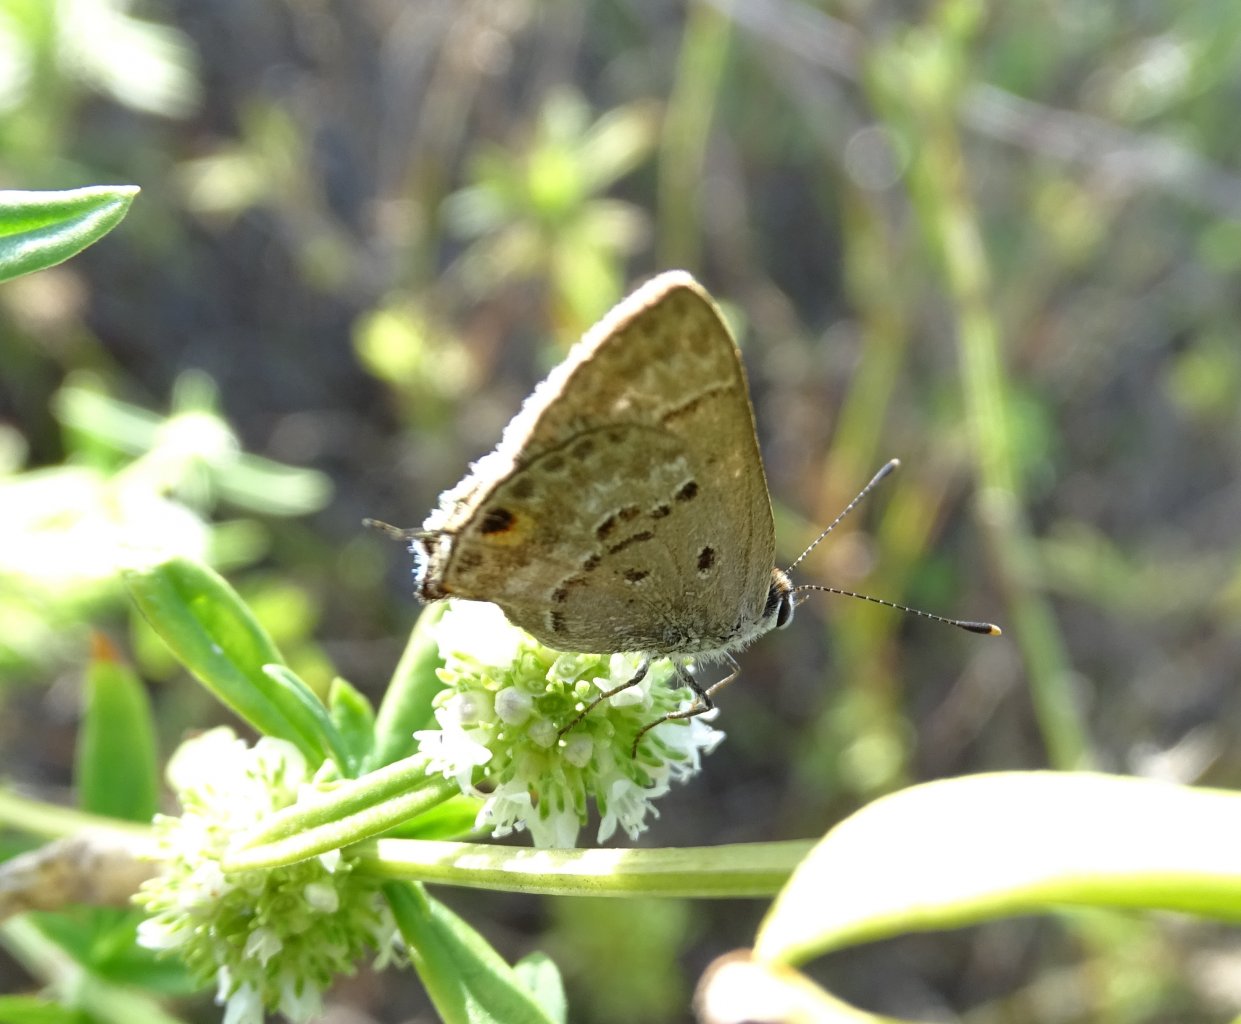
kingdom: Animalia
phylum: Arthropoda
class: Insecta
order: Lepidoptera
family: Lycaenidae
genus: Callicista
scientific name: Callicista columella
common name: Mallow Scrub-Hairstreak
